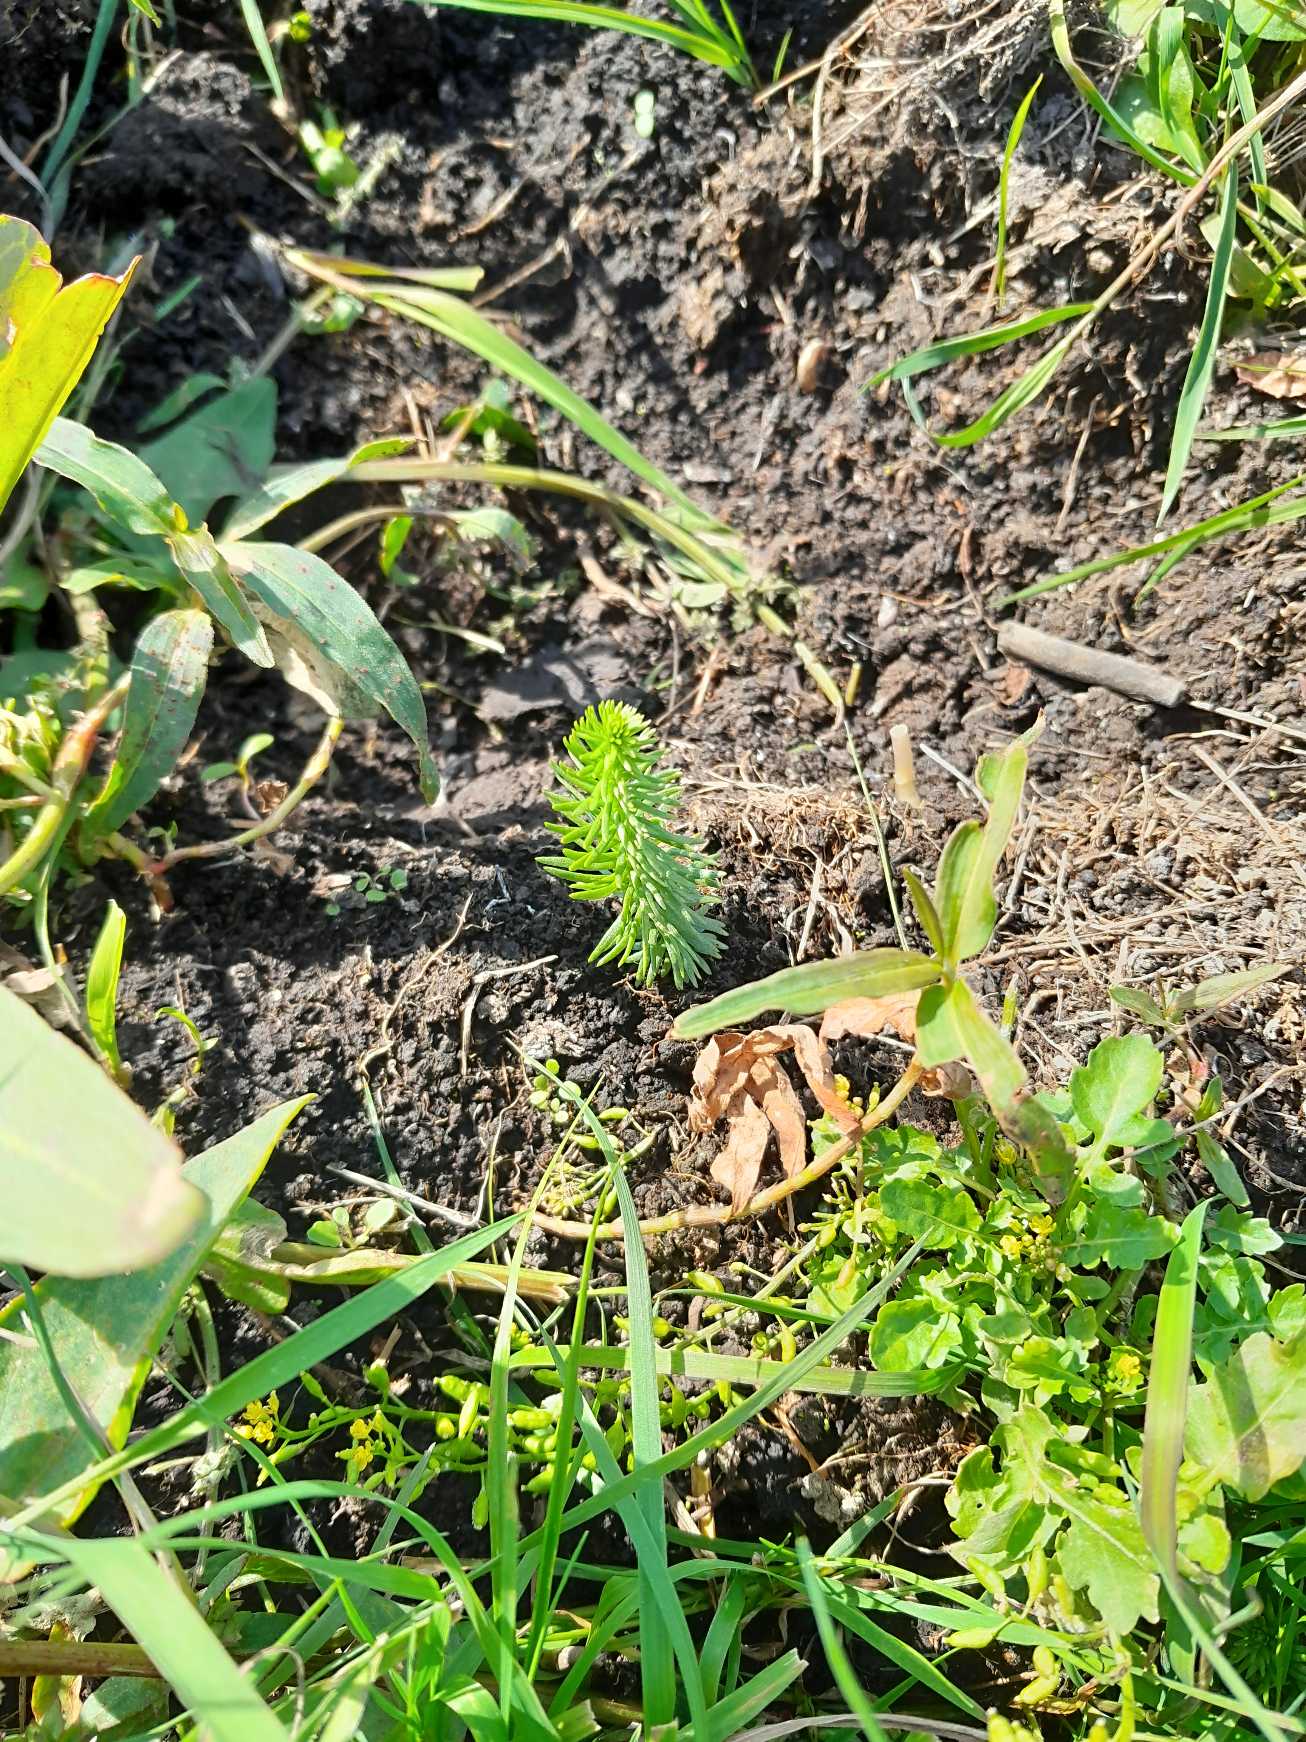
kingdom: Plantae
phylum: Tracheophyta
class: Magnoliopsida
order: Lamiales
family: Plantaginaceae
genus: Hippuris
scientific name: Hippuris vulgaris
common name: Vandspir
